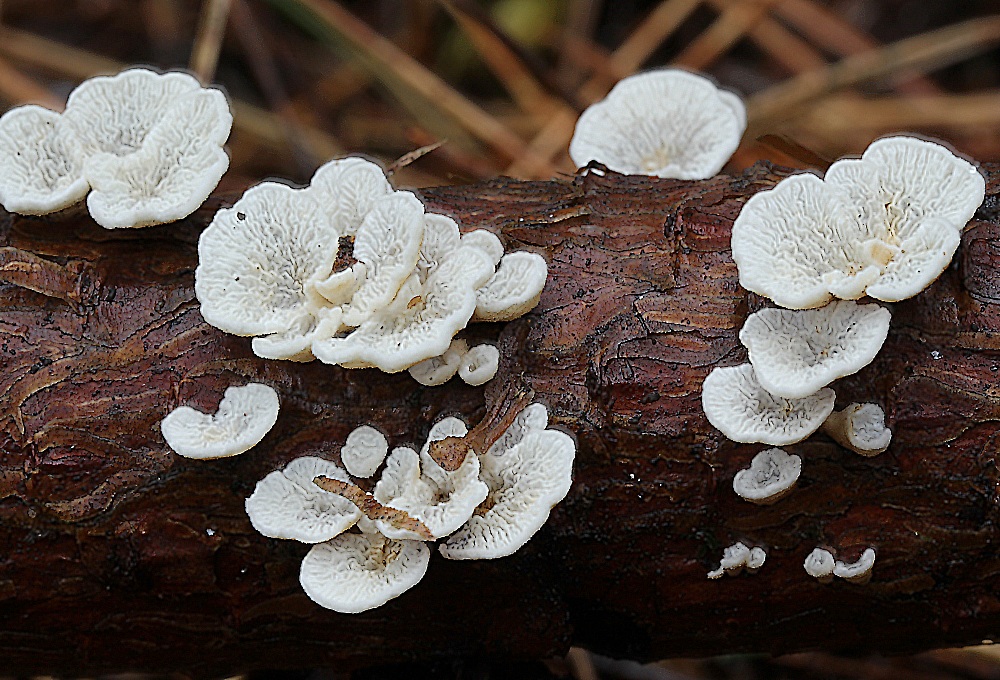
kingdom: Fungi
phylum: Basidiomycota
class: Agaricomycetes
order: Amylocorticiales
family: Amylocorticiaceae
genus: Plicaturopsis
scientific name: Plicaturopsis crispa
